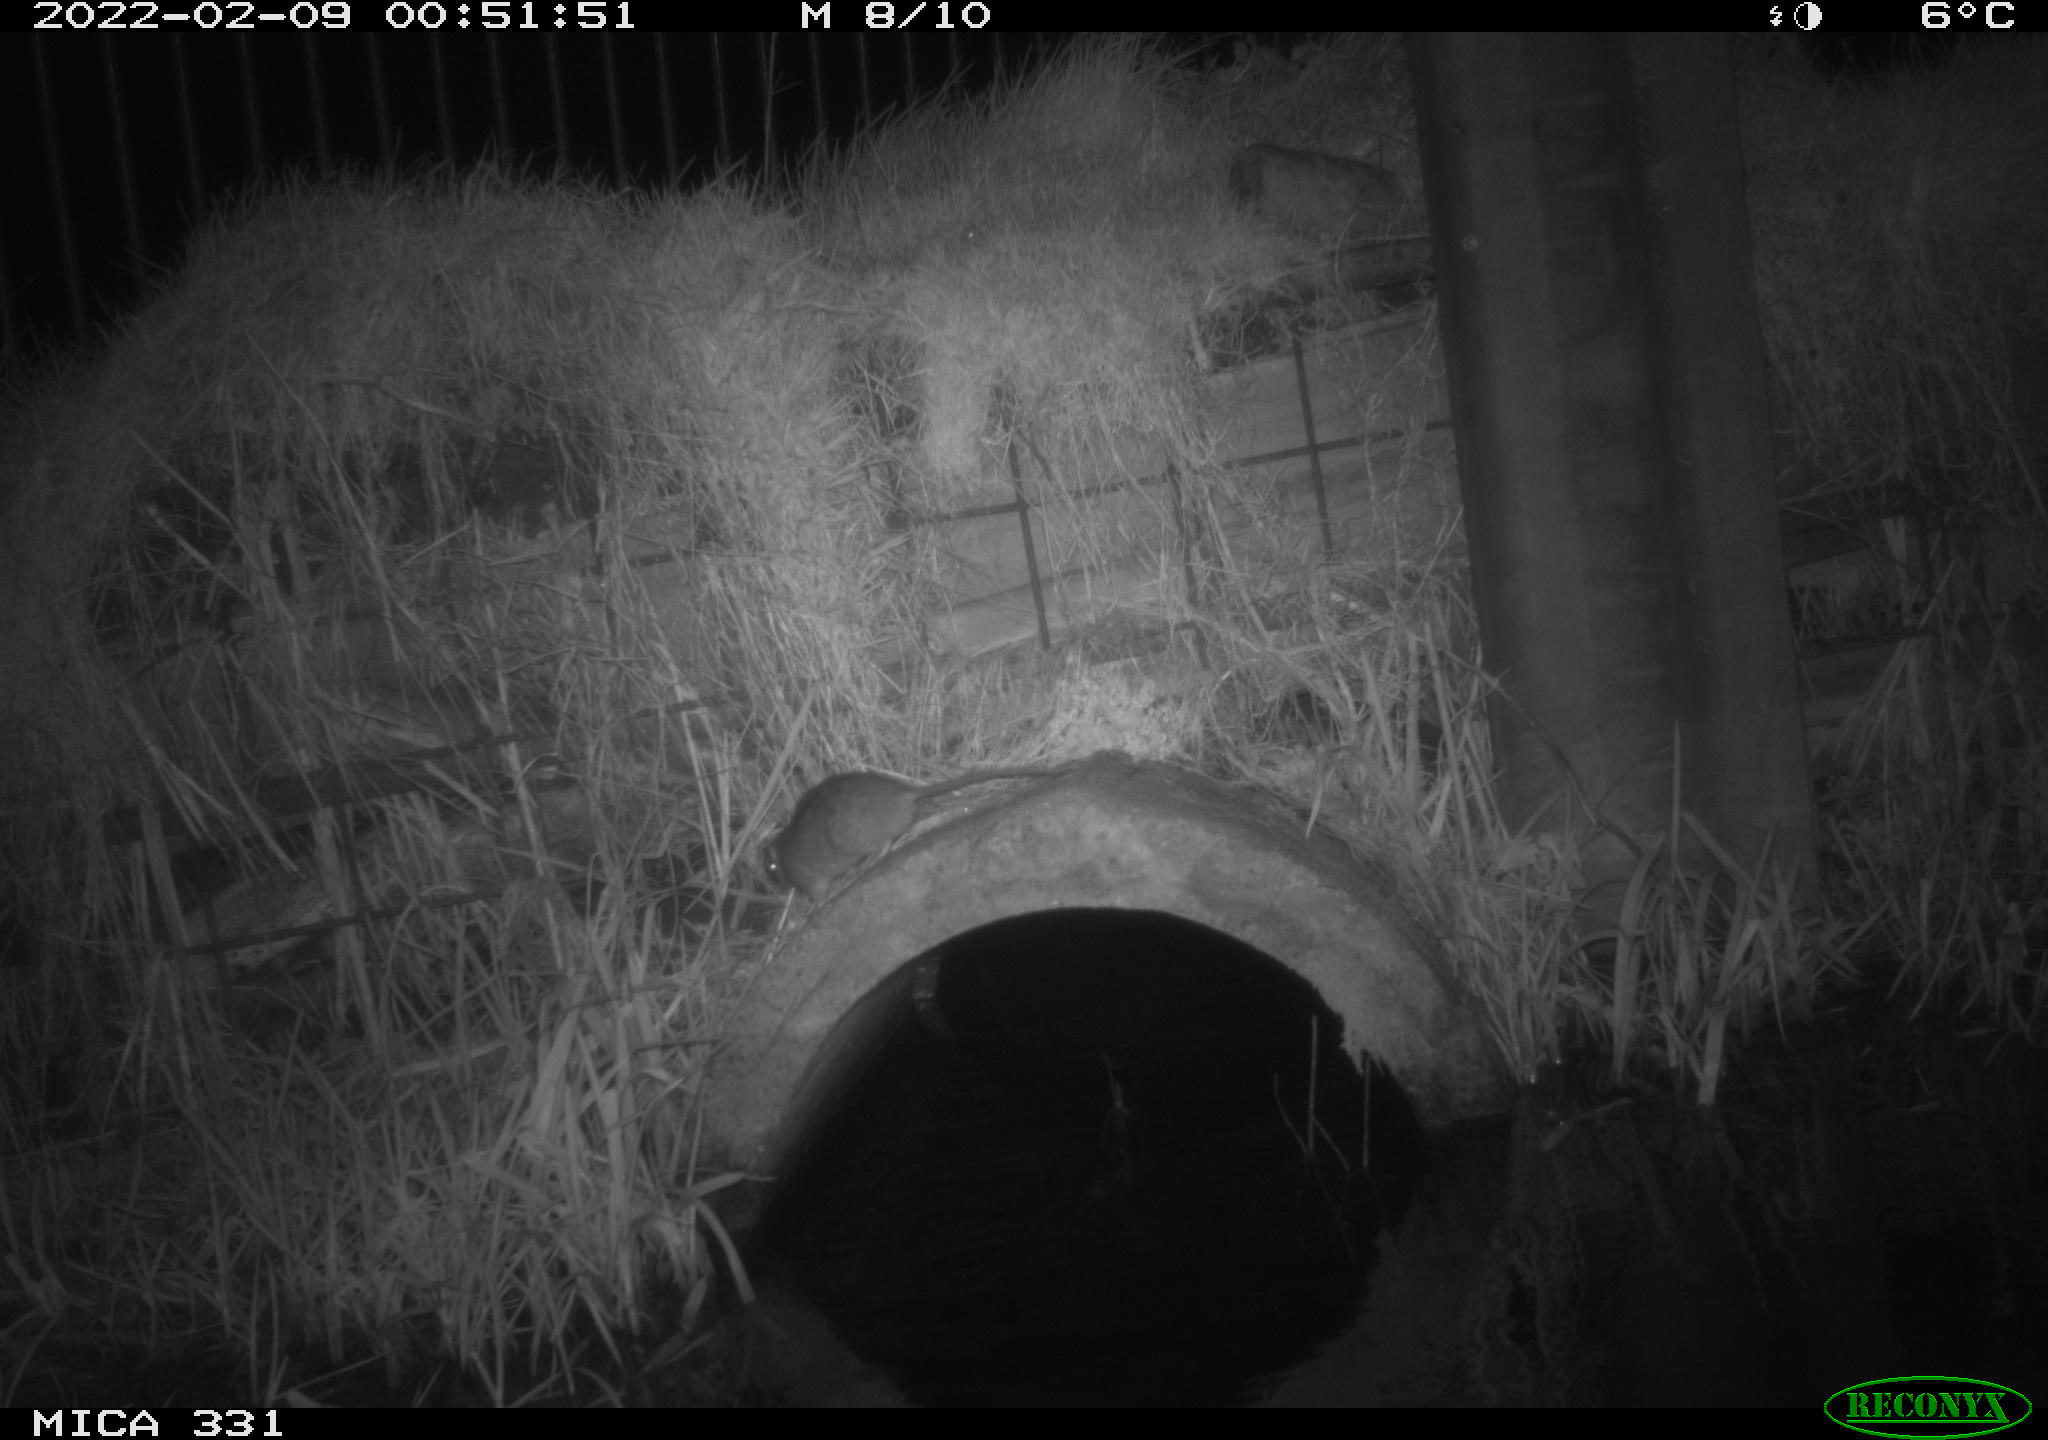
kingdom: Animalia
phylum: Chordata
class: Mammalia
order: Rodentia
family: Muridae
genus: Rattus
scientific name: Rattus norvegicus
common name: Brown rat
